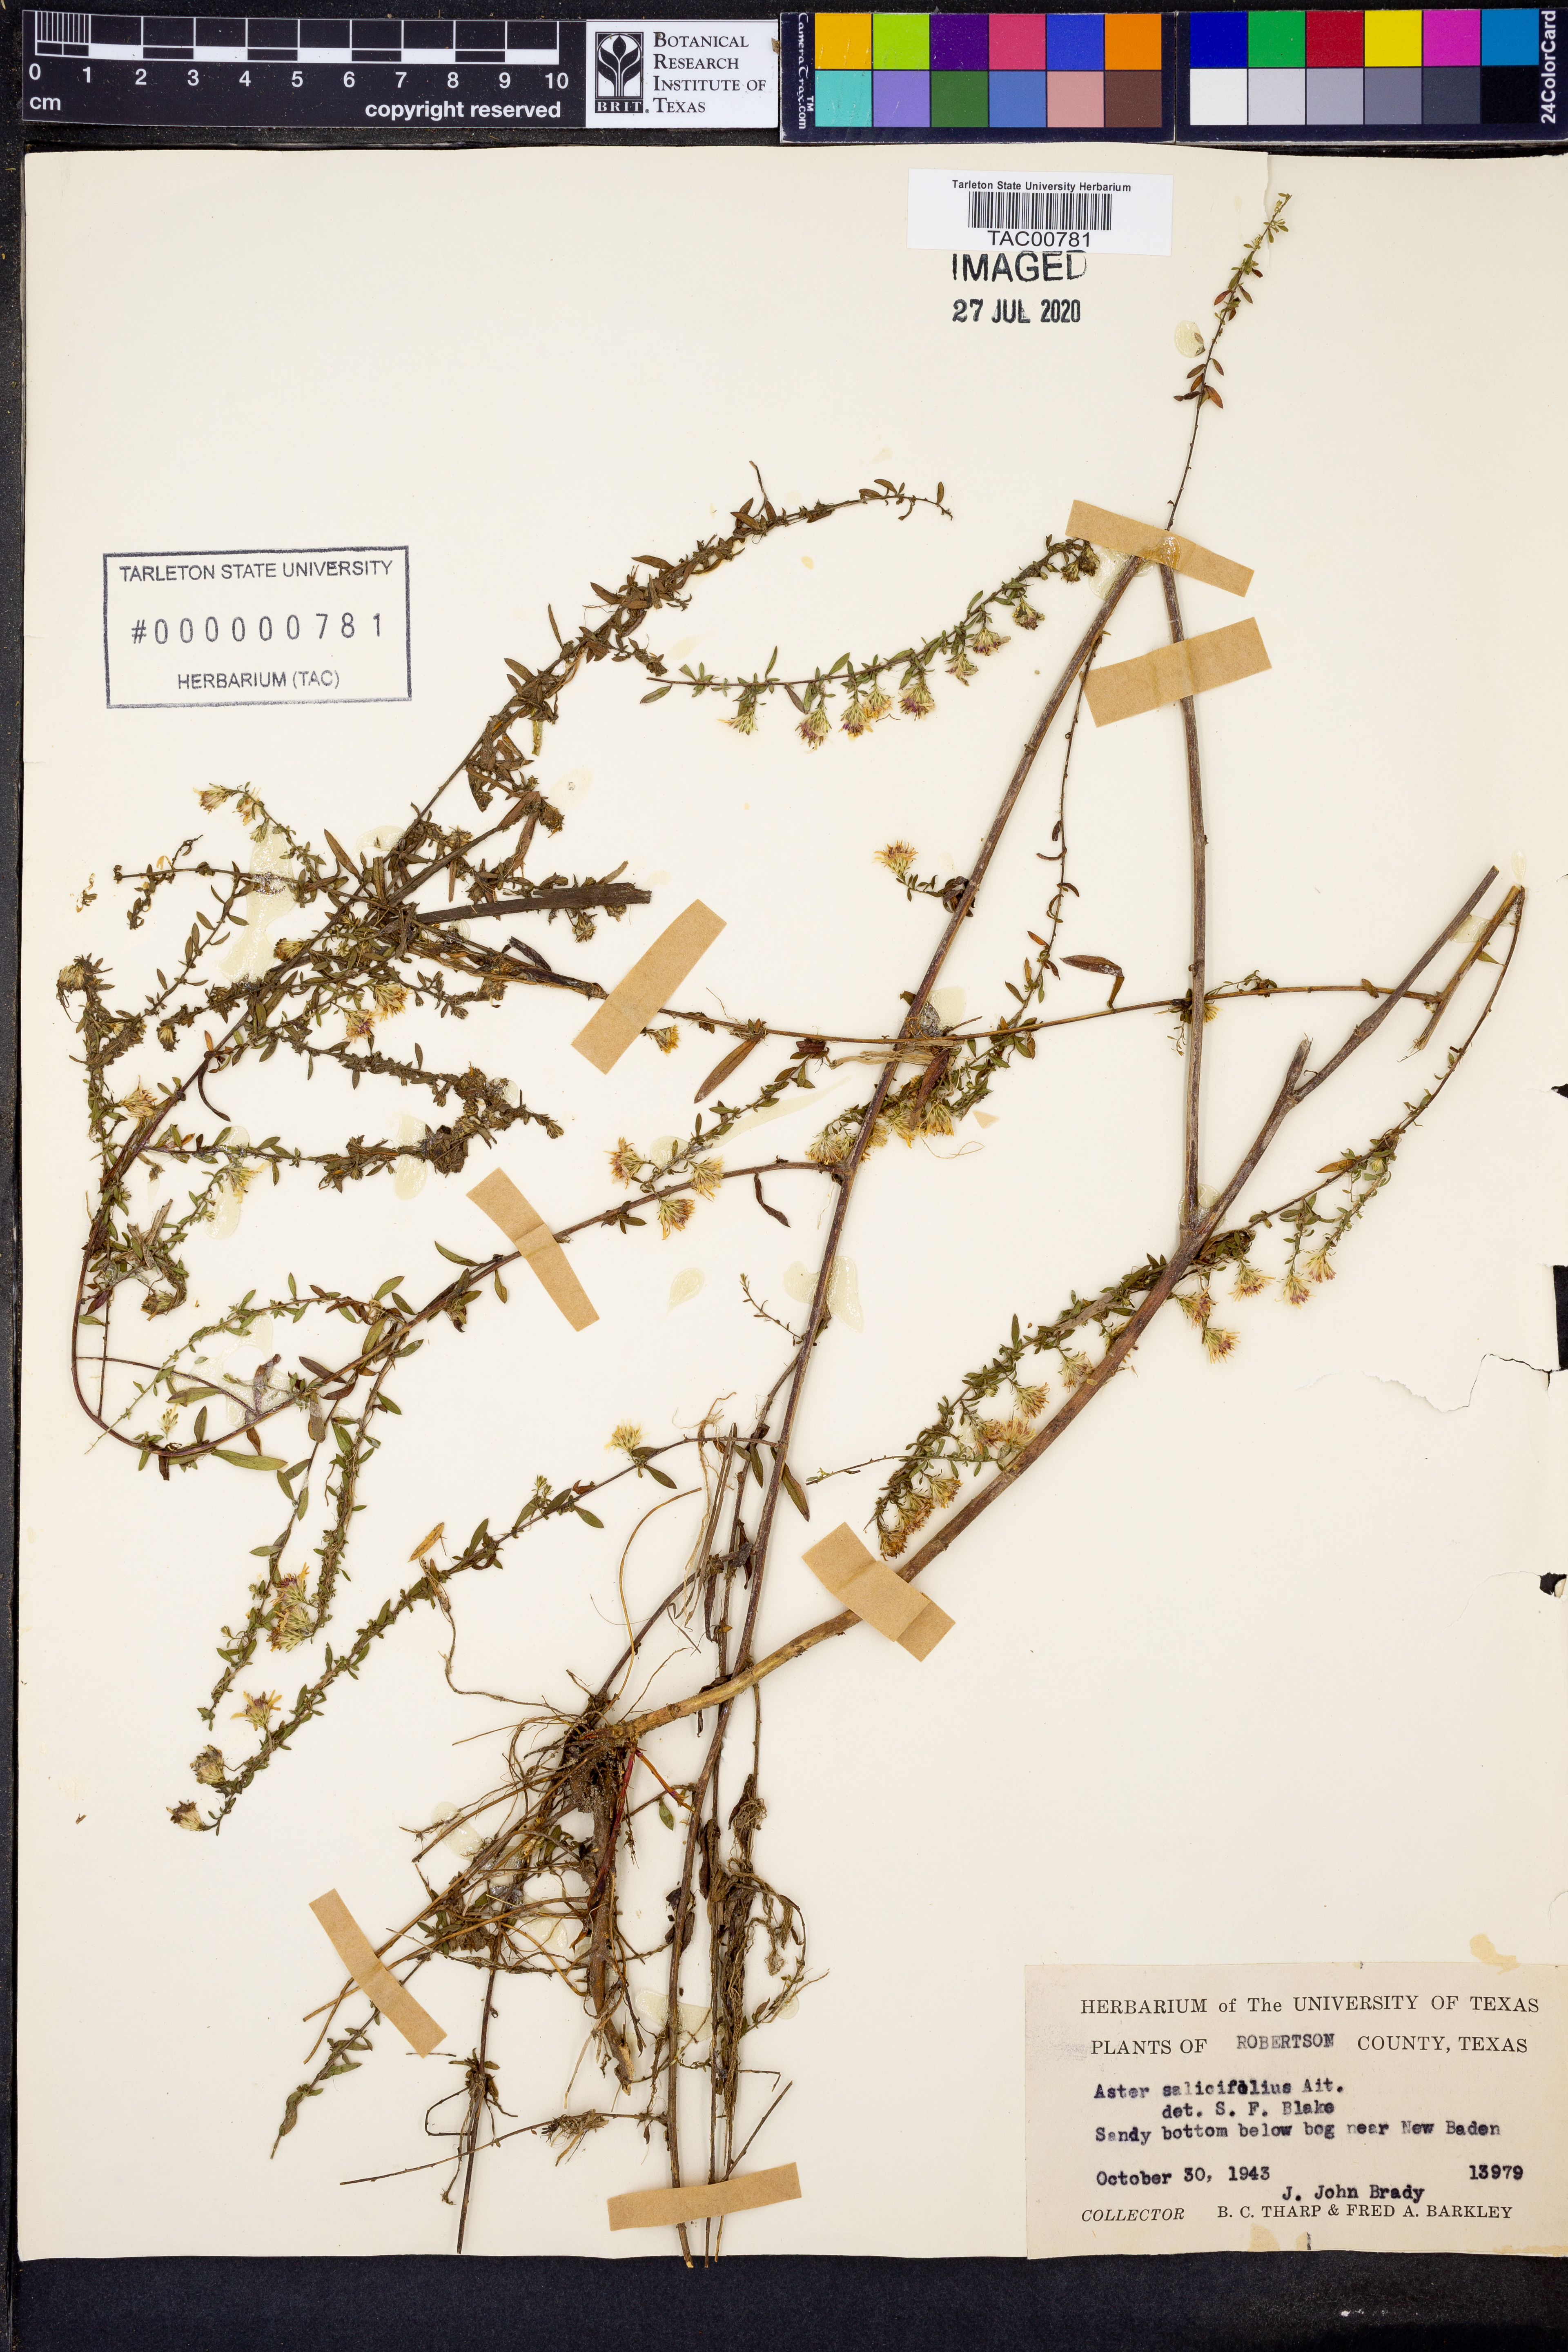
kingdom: Plantae
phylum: Tracheophyta
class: Magnoliopsida
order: Asterales
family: Asteraceae
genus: Symphyotrichum
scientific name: Symphyotrichum praealtum
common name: Willow aster
